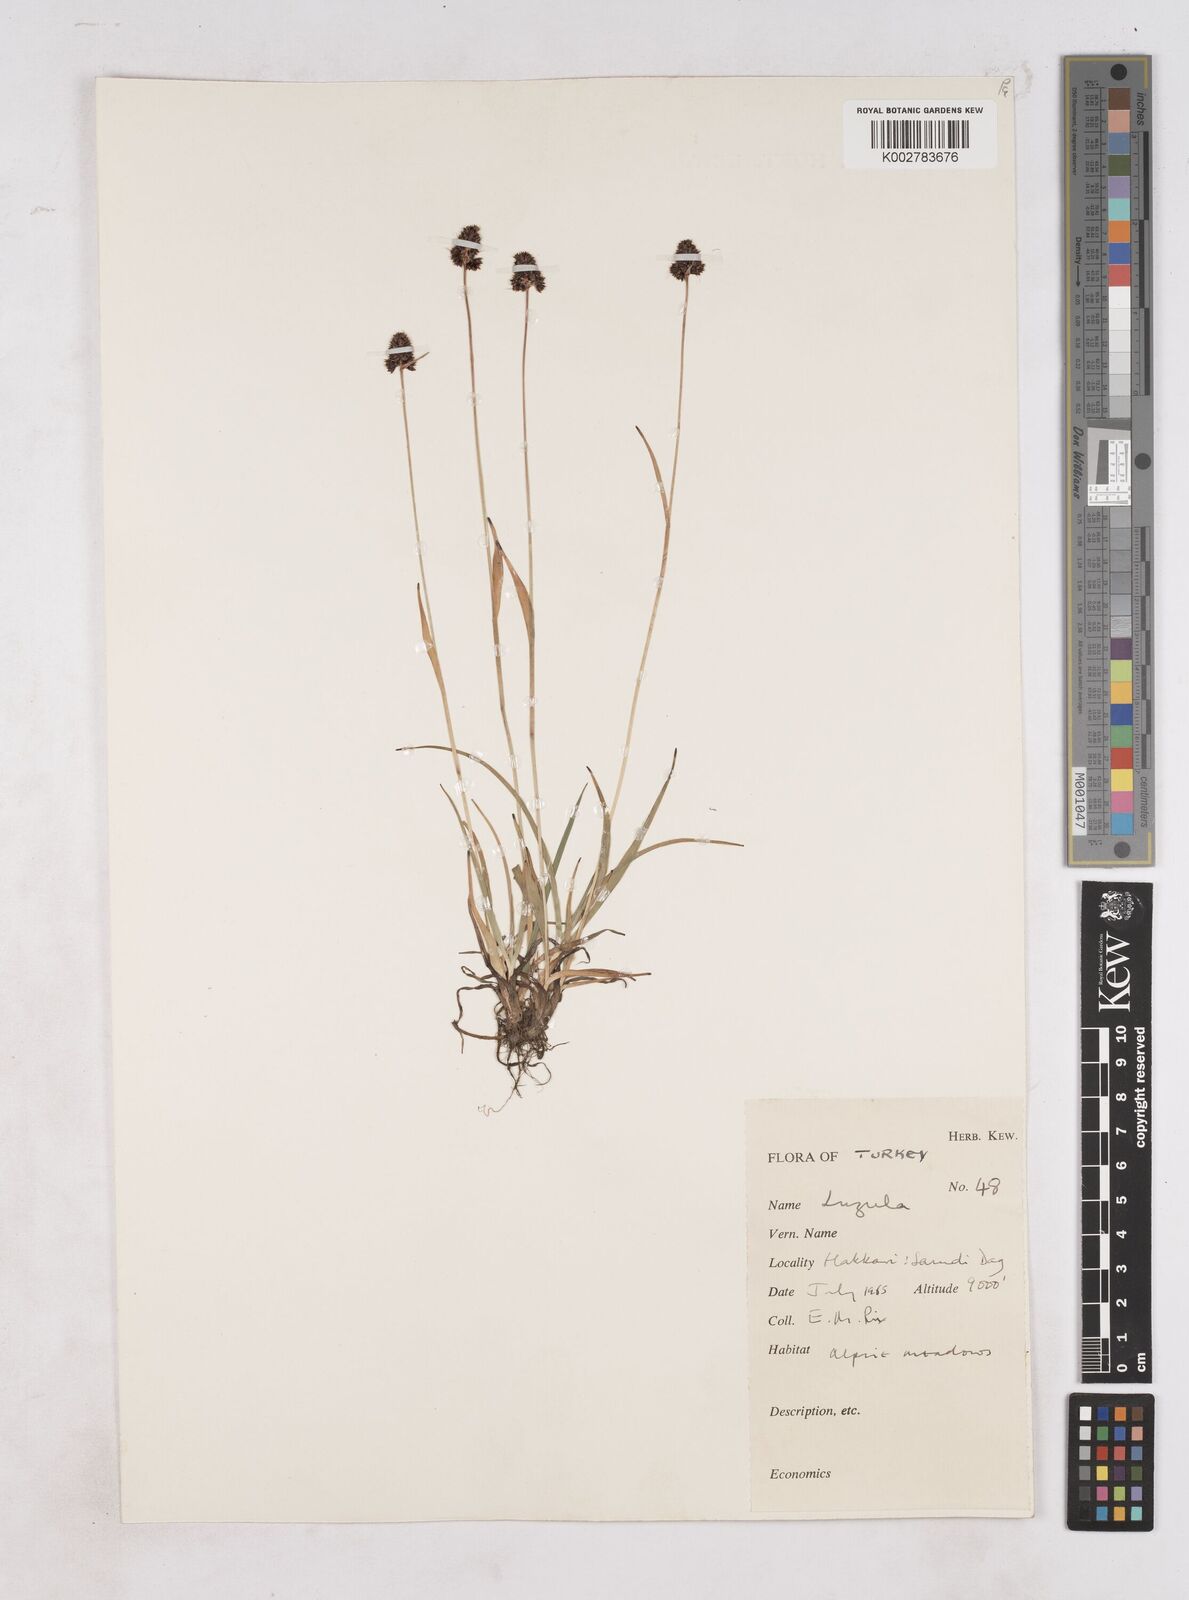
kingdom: Plantae
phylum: Tracheophyta
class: Liliopsida
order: Poales
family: Juncaceae
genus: Luzula
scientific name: Luzula
